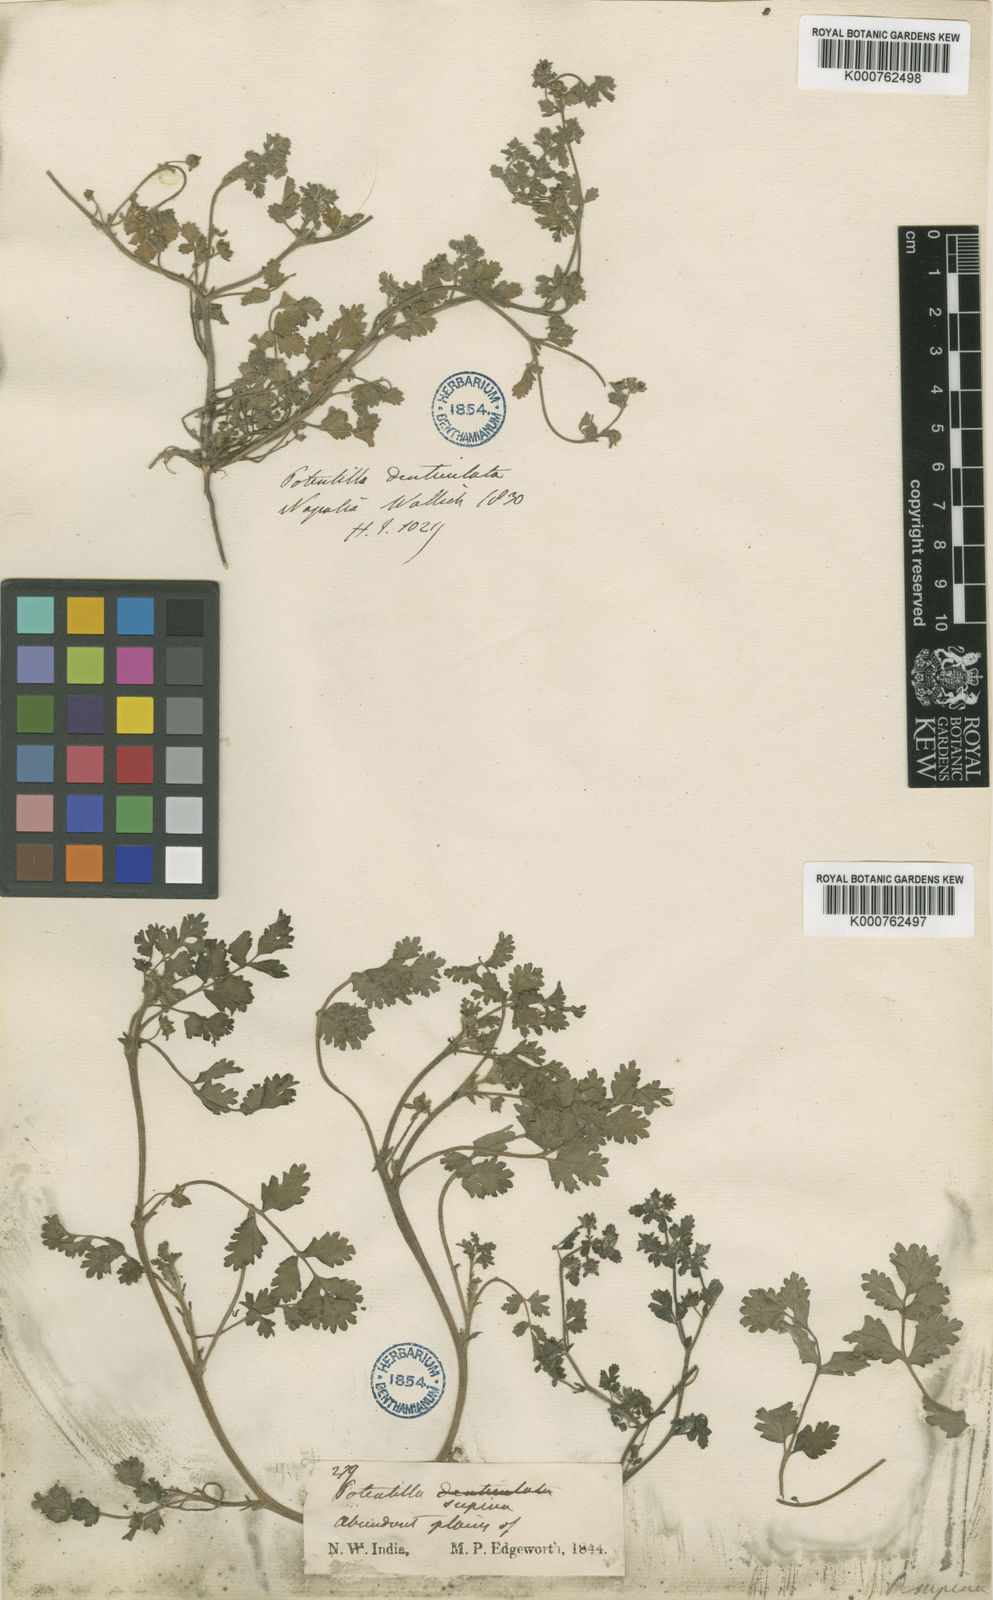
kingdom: Plantae
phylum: Tracheophyta
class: Magnoliopsida
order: Rosales
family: Rosaceae
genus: Potentilla
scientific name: Potentilla supina
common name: Prostrate cinquefoil
